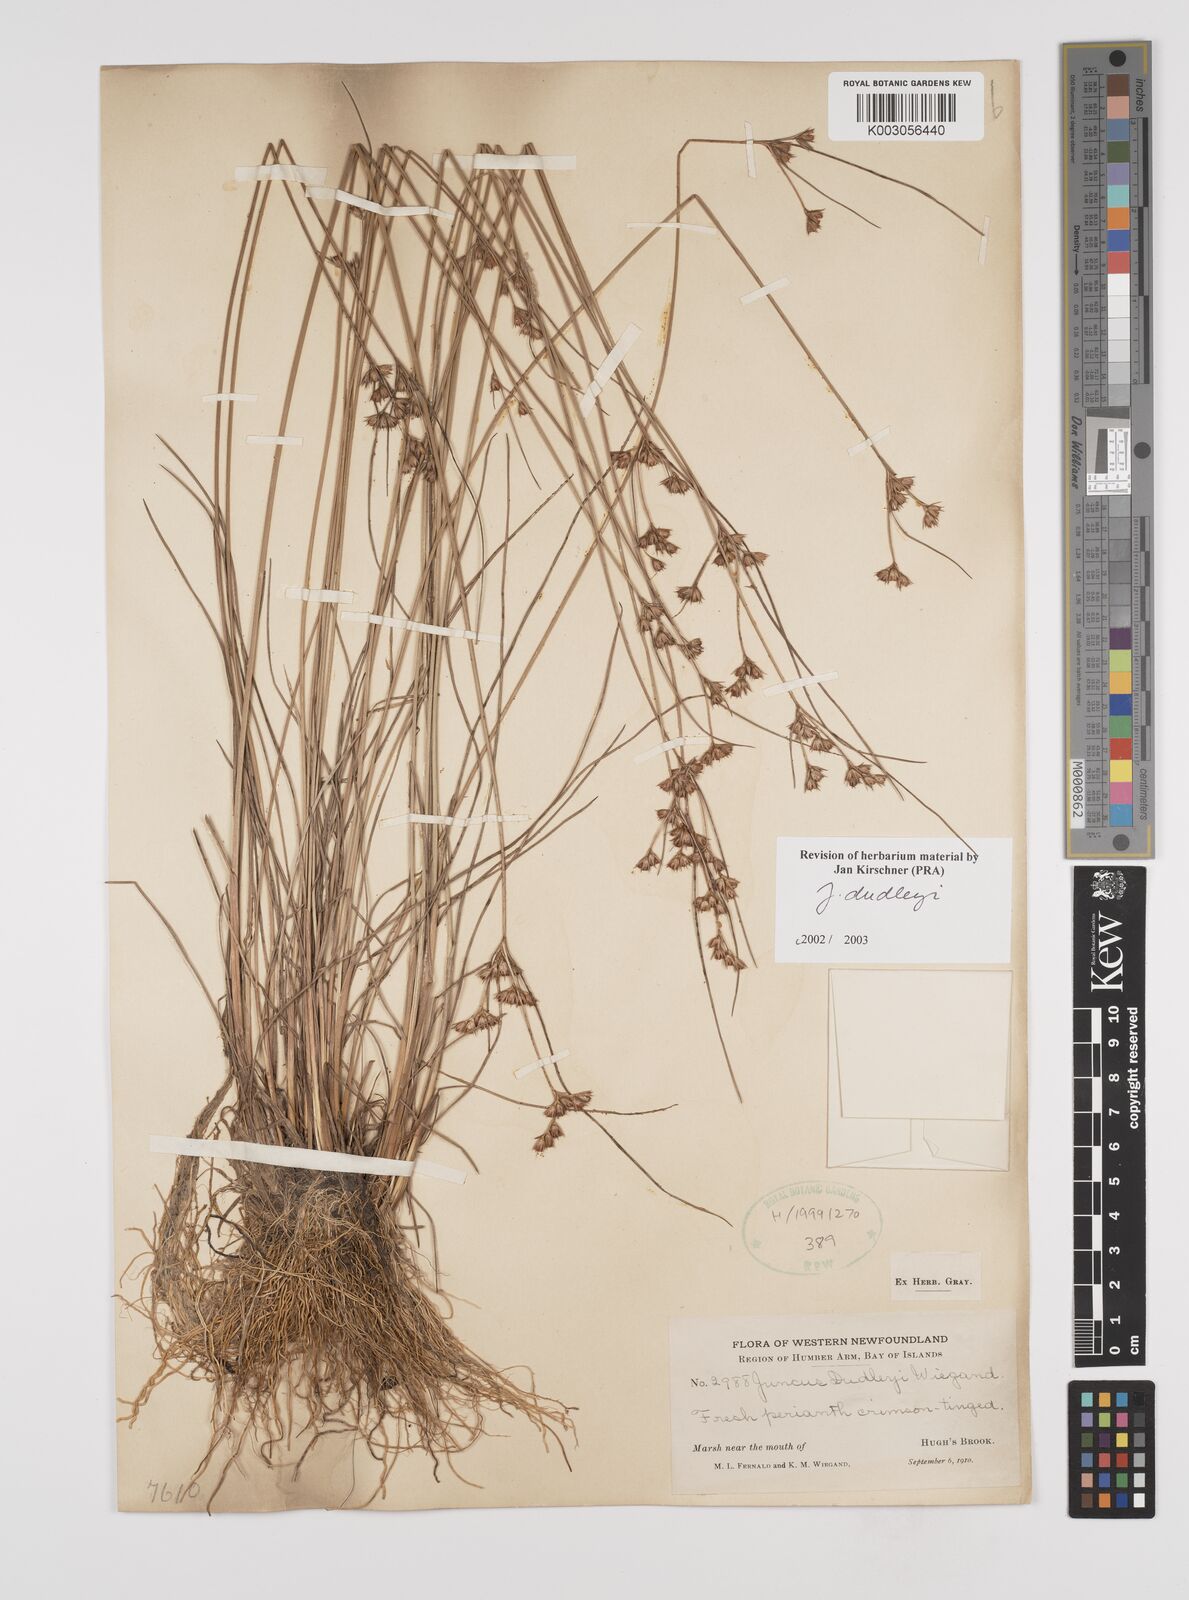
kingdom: Plantae
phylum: Tracheophyta
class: Liliopsida
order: Poales
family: Juncaceae
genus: Juncus
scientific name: Juncus dudleyi
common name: Dudley's rush
